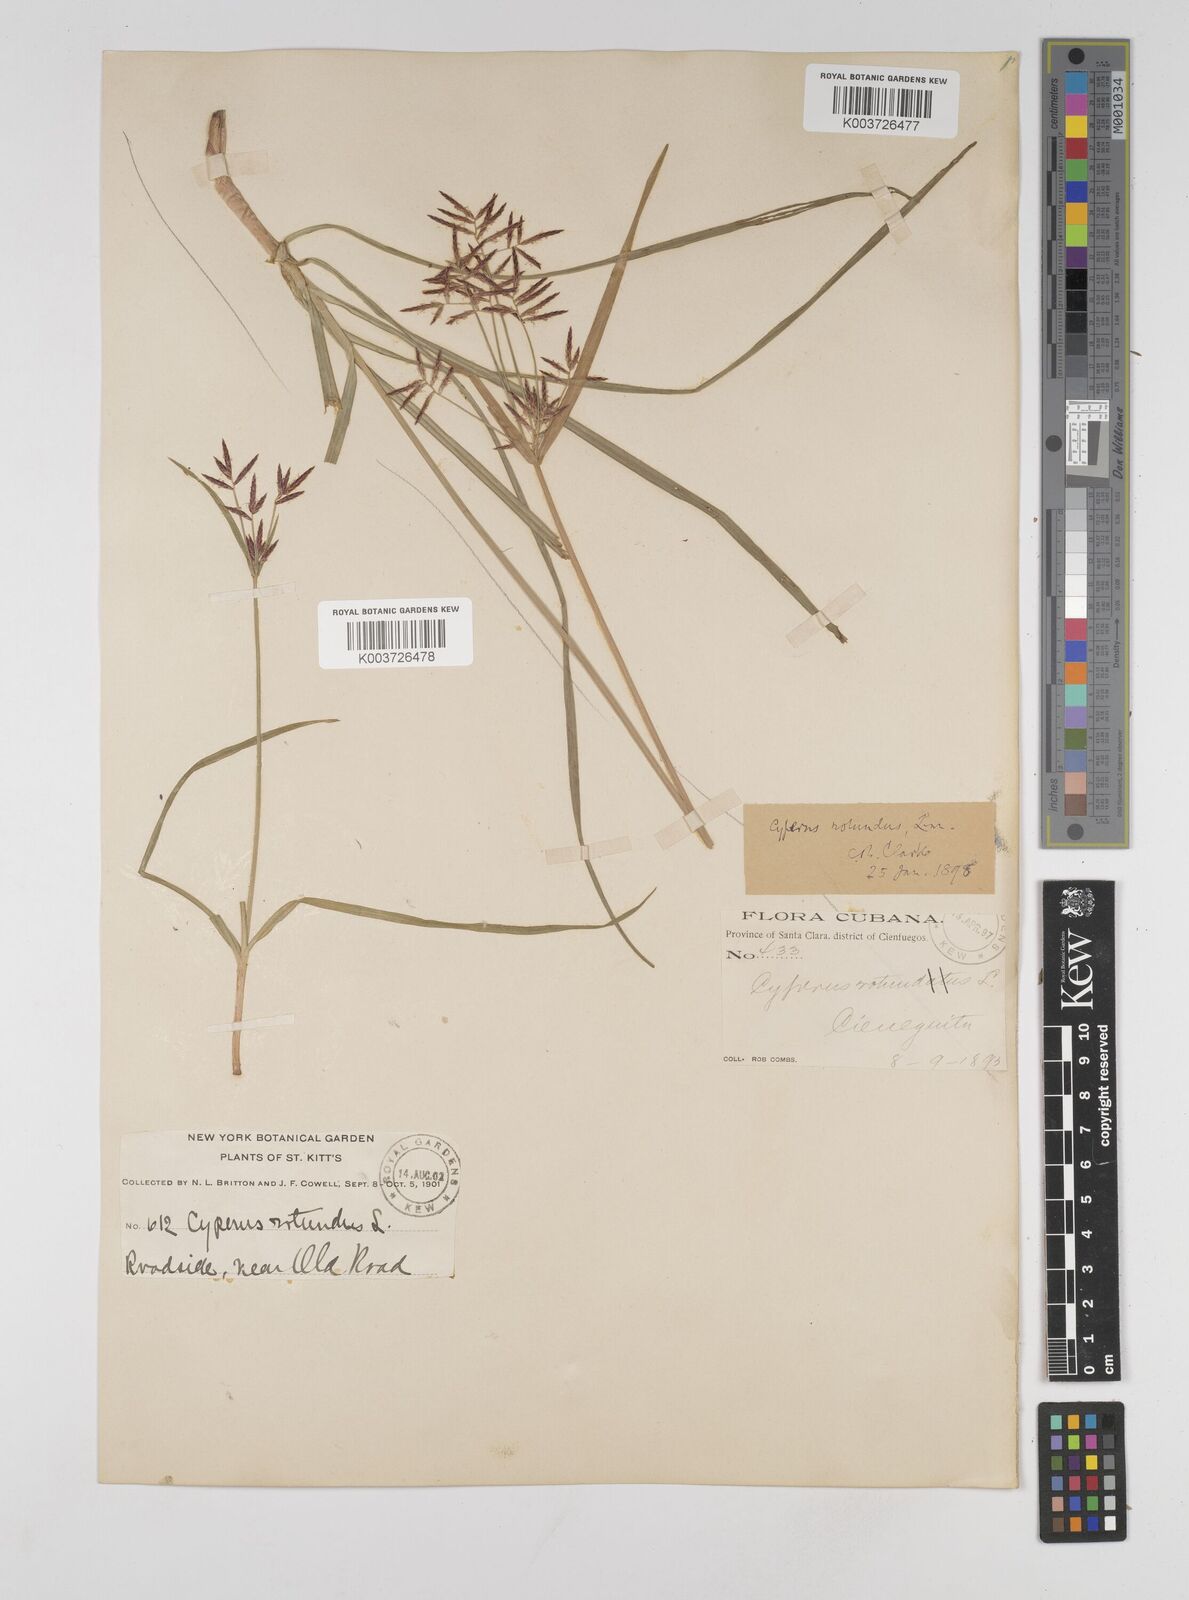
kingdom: Plantae
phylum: Tracheophyta
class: Liliopsida
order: Poales
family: Cyperaceae
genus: Cyperus
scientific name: Cyperus rotundus
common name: Nutgrass
